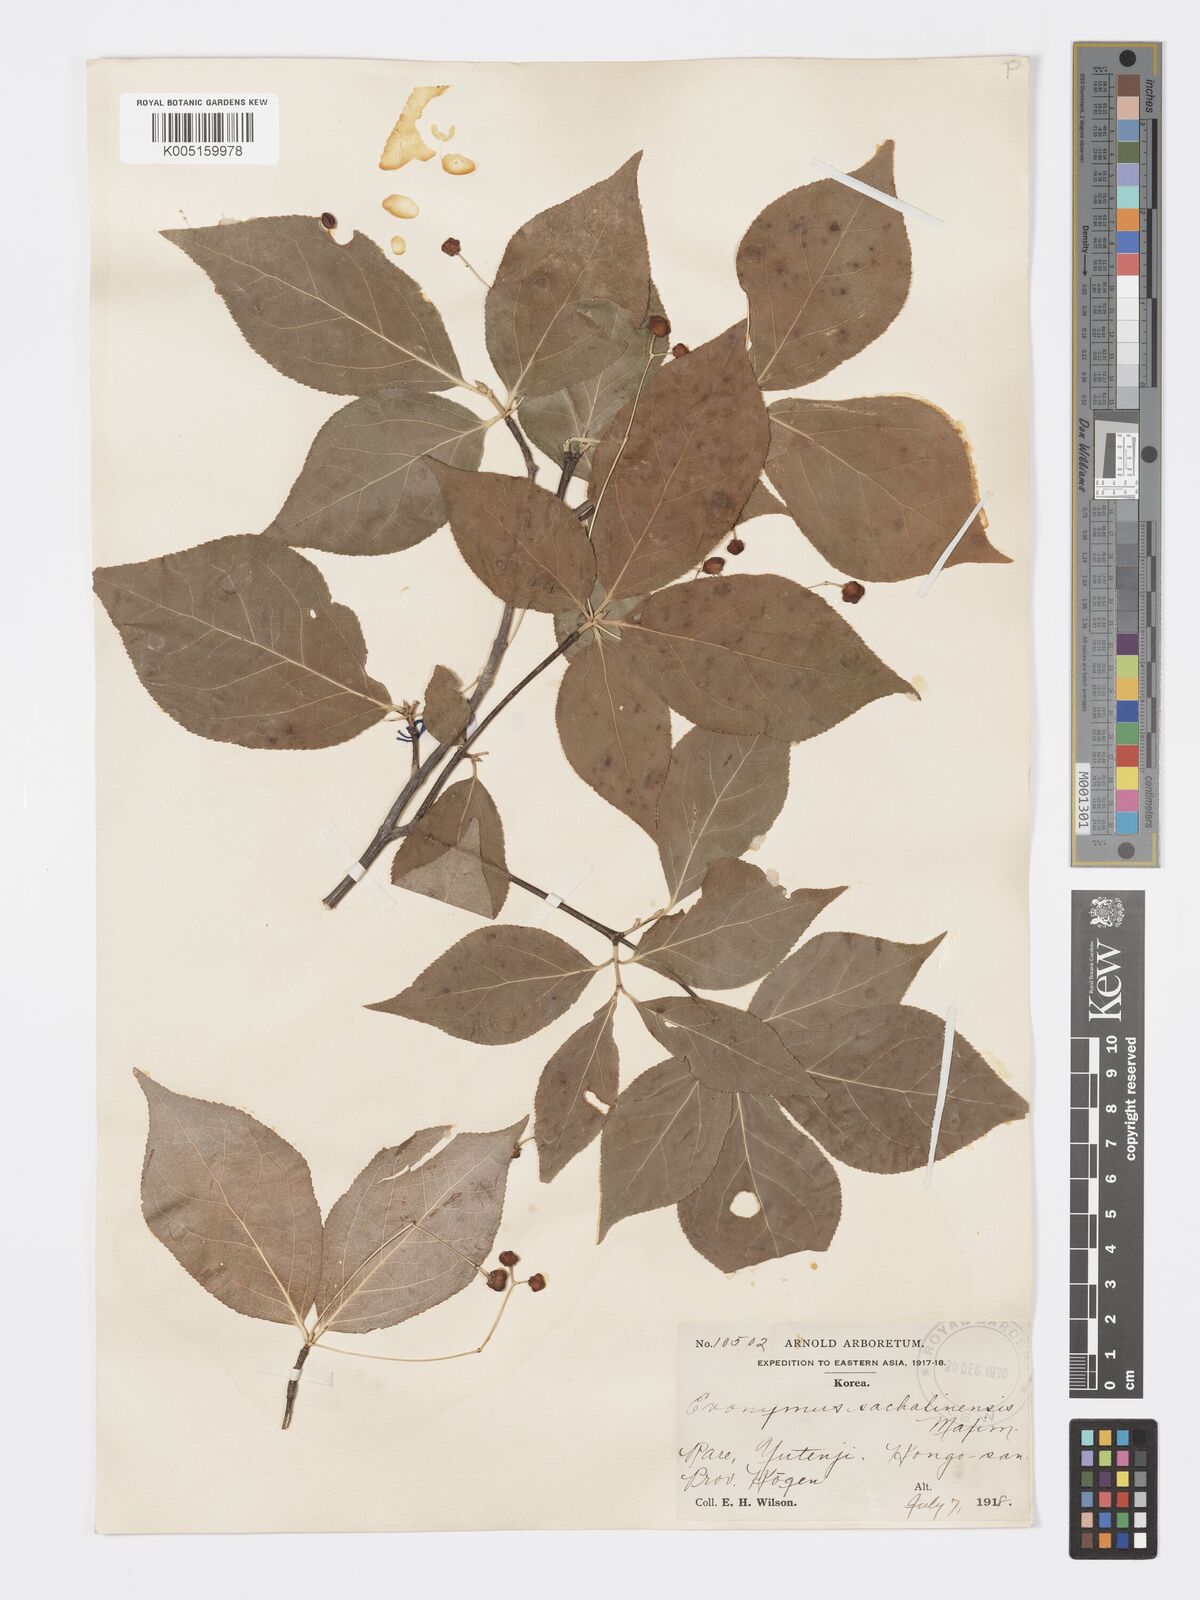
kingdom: Plantae
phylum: Tracheophyta
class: Magnoliopsida
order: Celastrales
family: Celastraceae
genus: Euonymus
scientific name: Euonymus sachalinensis
